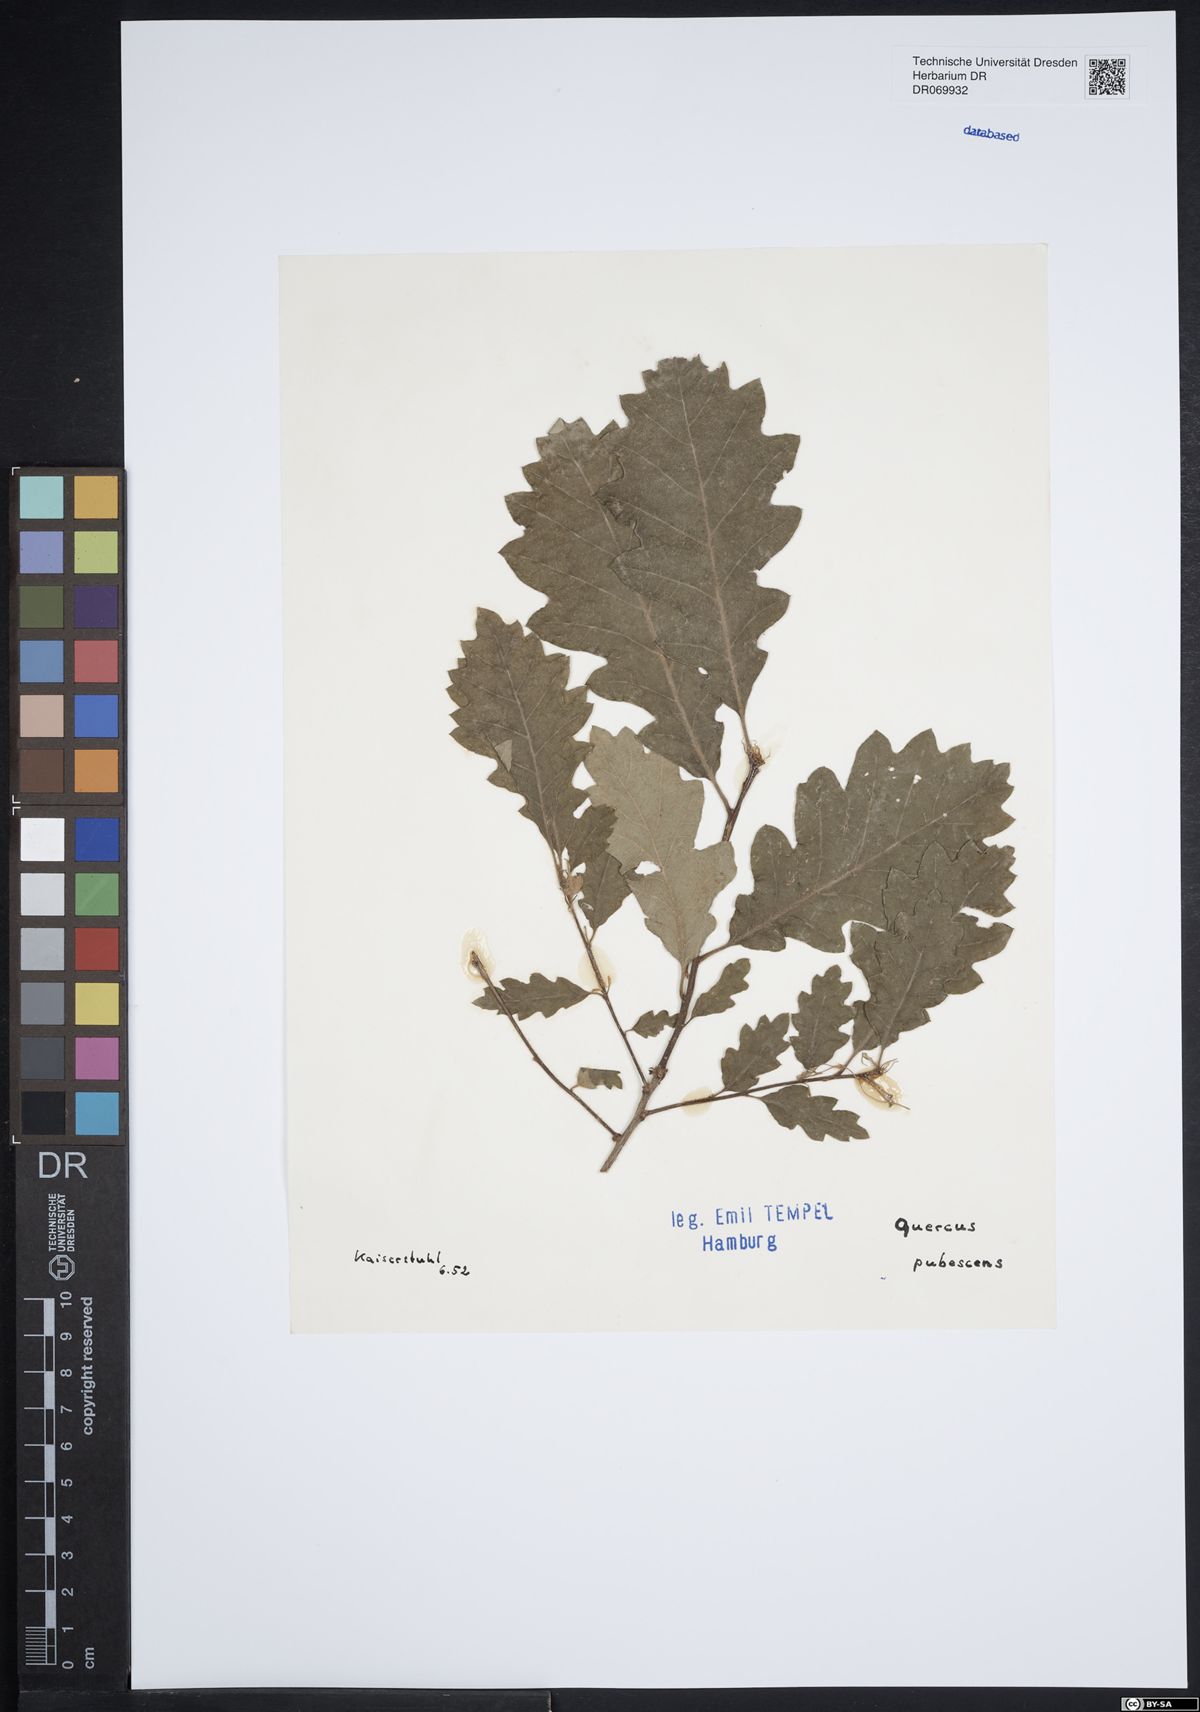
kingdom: Plantae
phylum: Tracheophyta
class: Magnoliopsida
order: Fagales
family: Fagaceae
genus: Quercus
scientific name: Quercus pubescens
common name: Downy oak
